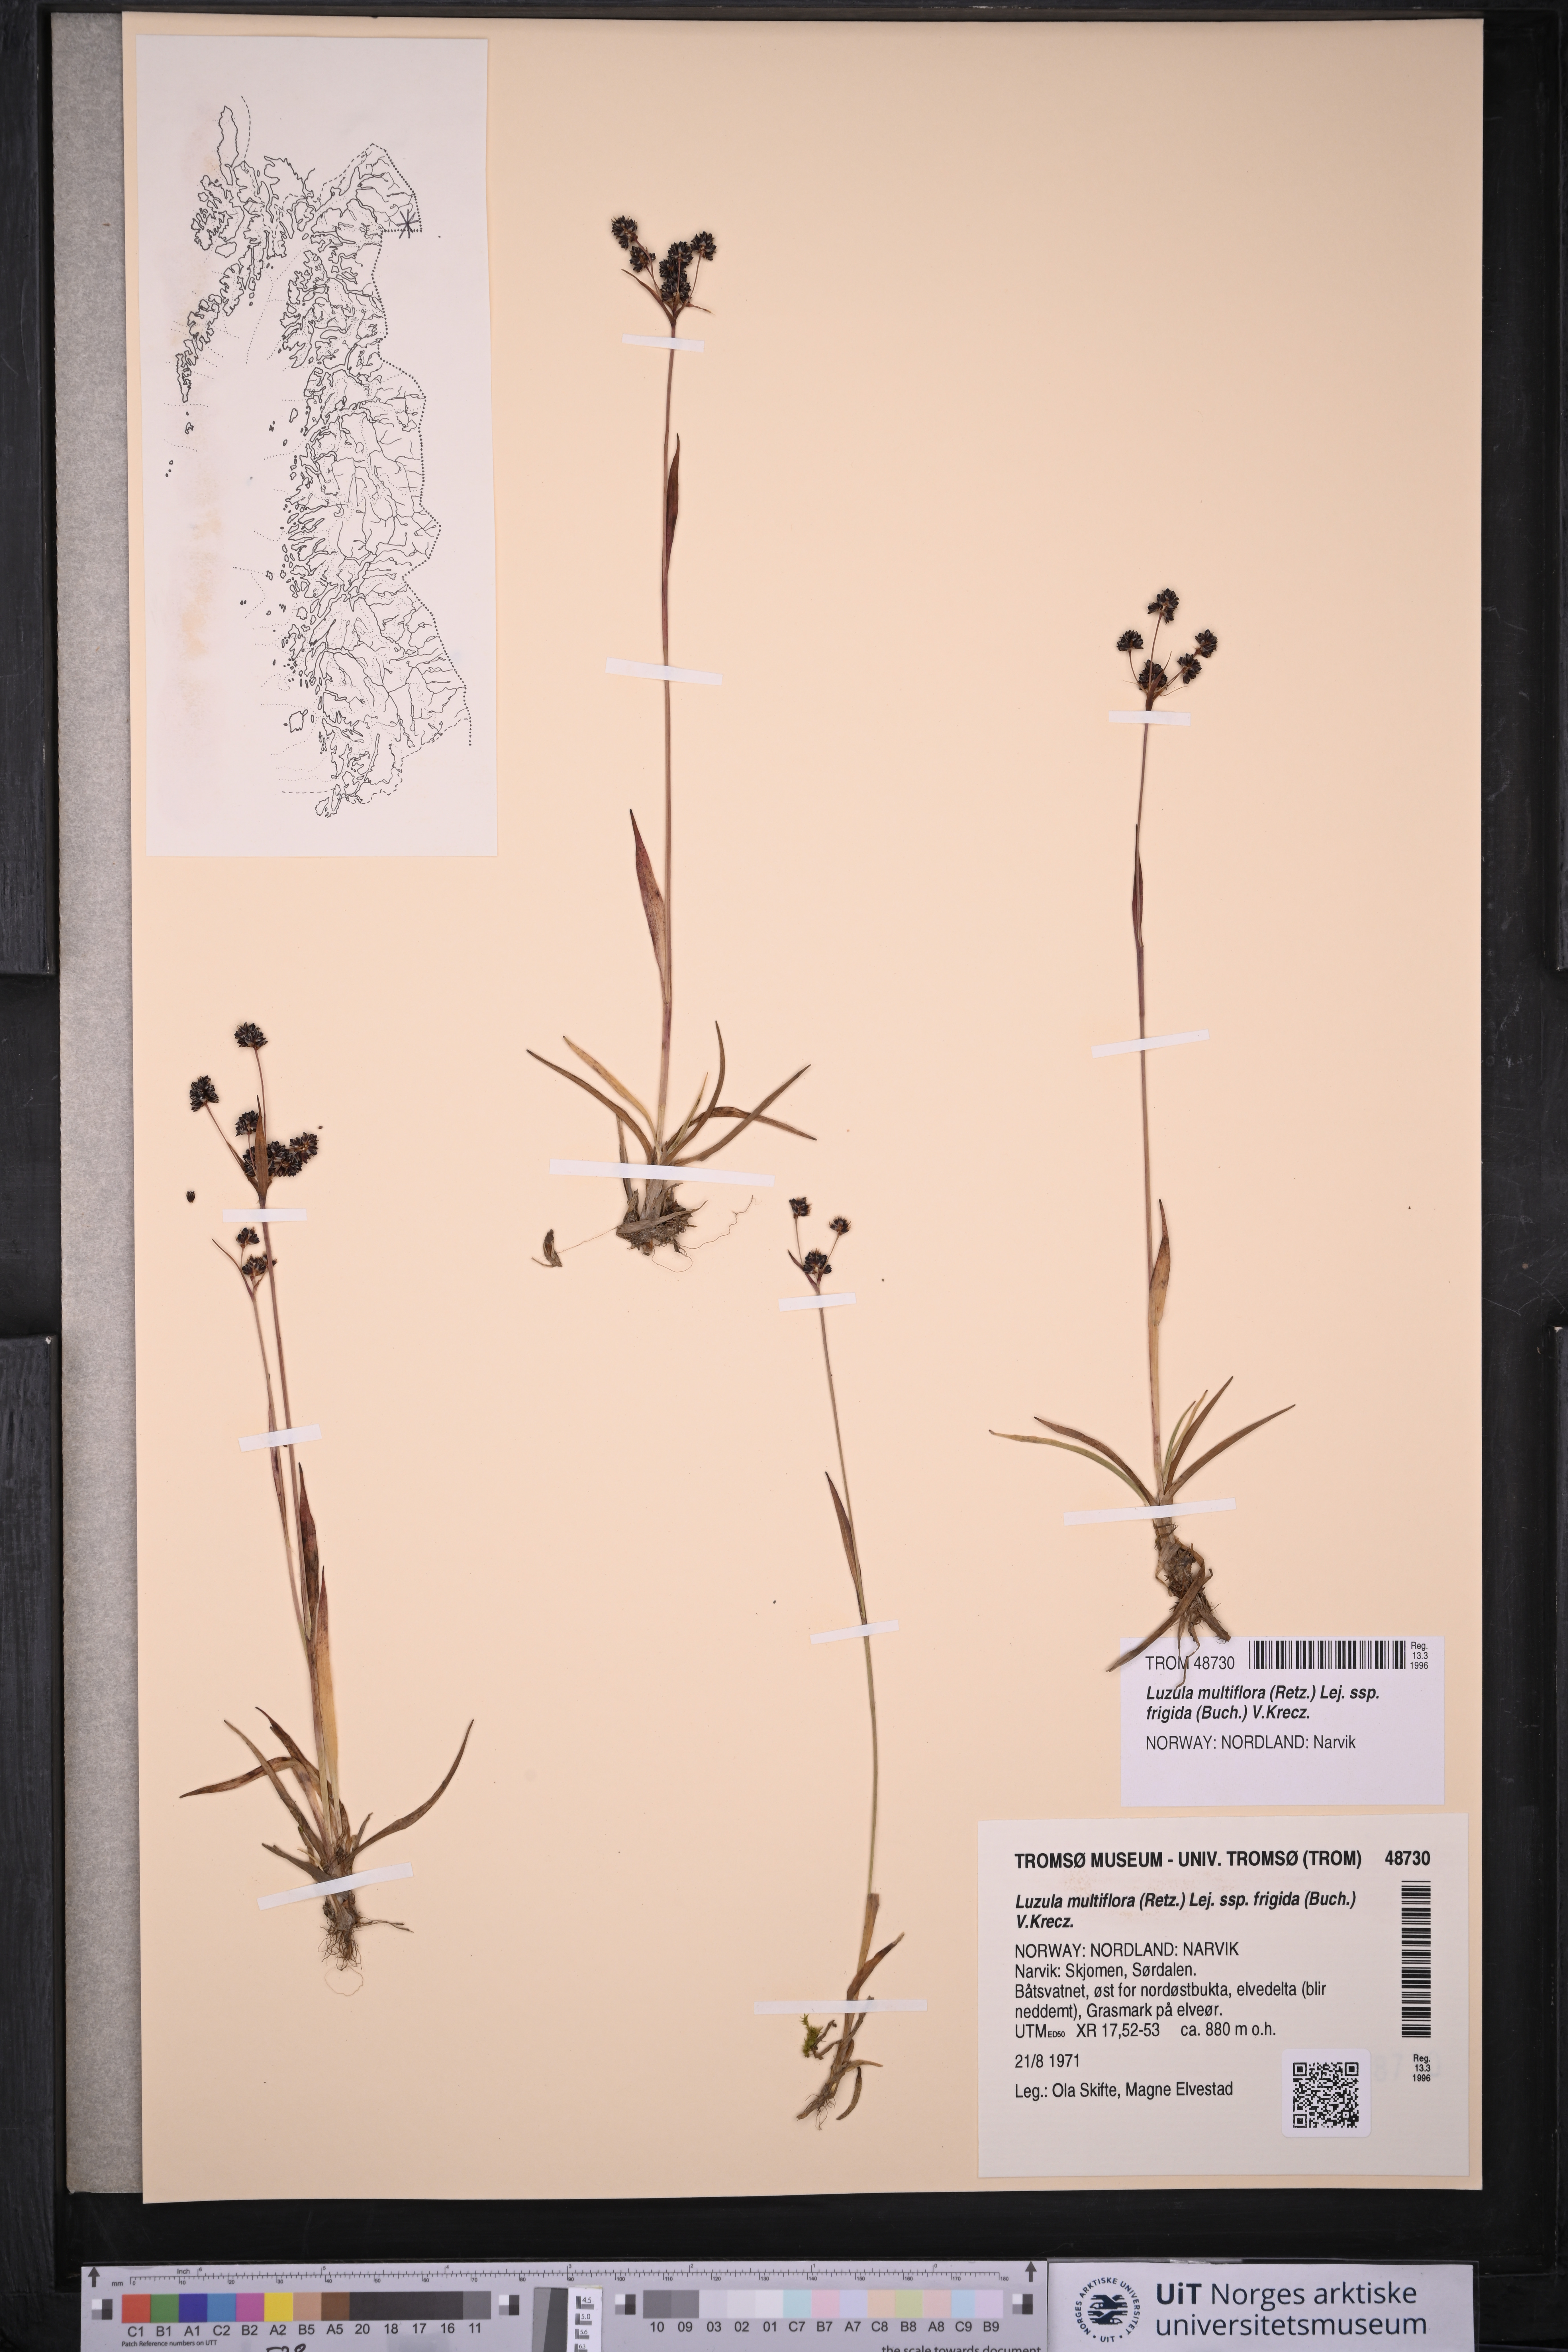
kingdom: Plantae
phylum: Tracheophyta
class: Liliopsida
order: Poales
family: Juncaceae
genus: Luzula
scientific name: Luzula multiflora
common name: Heath wood-rush
